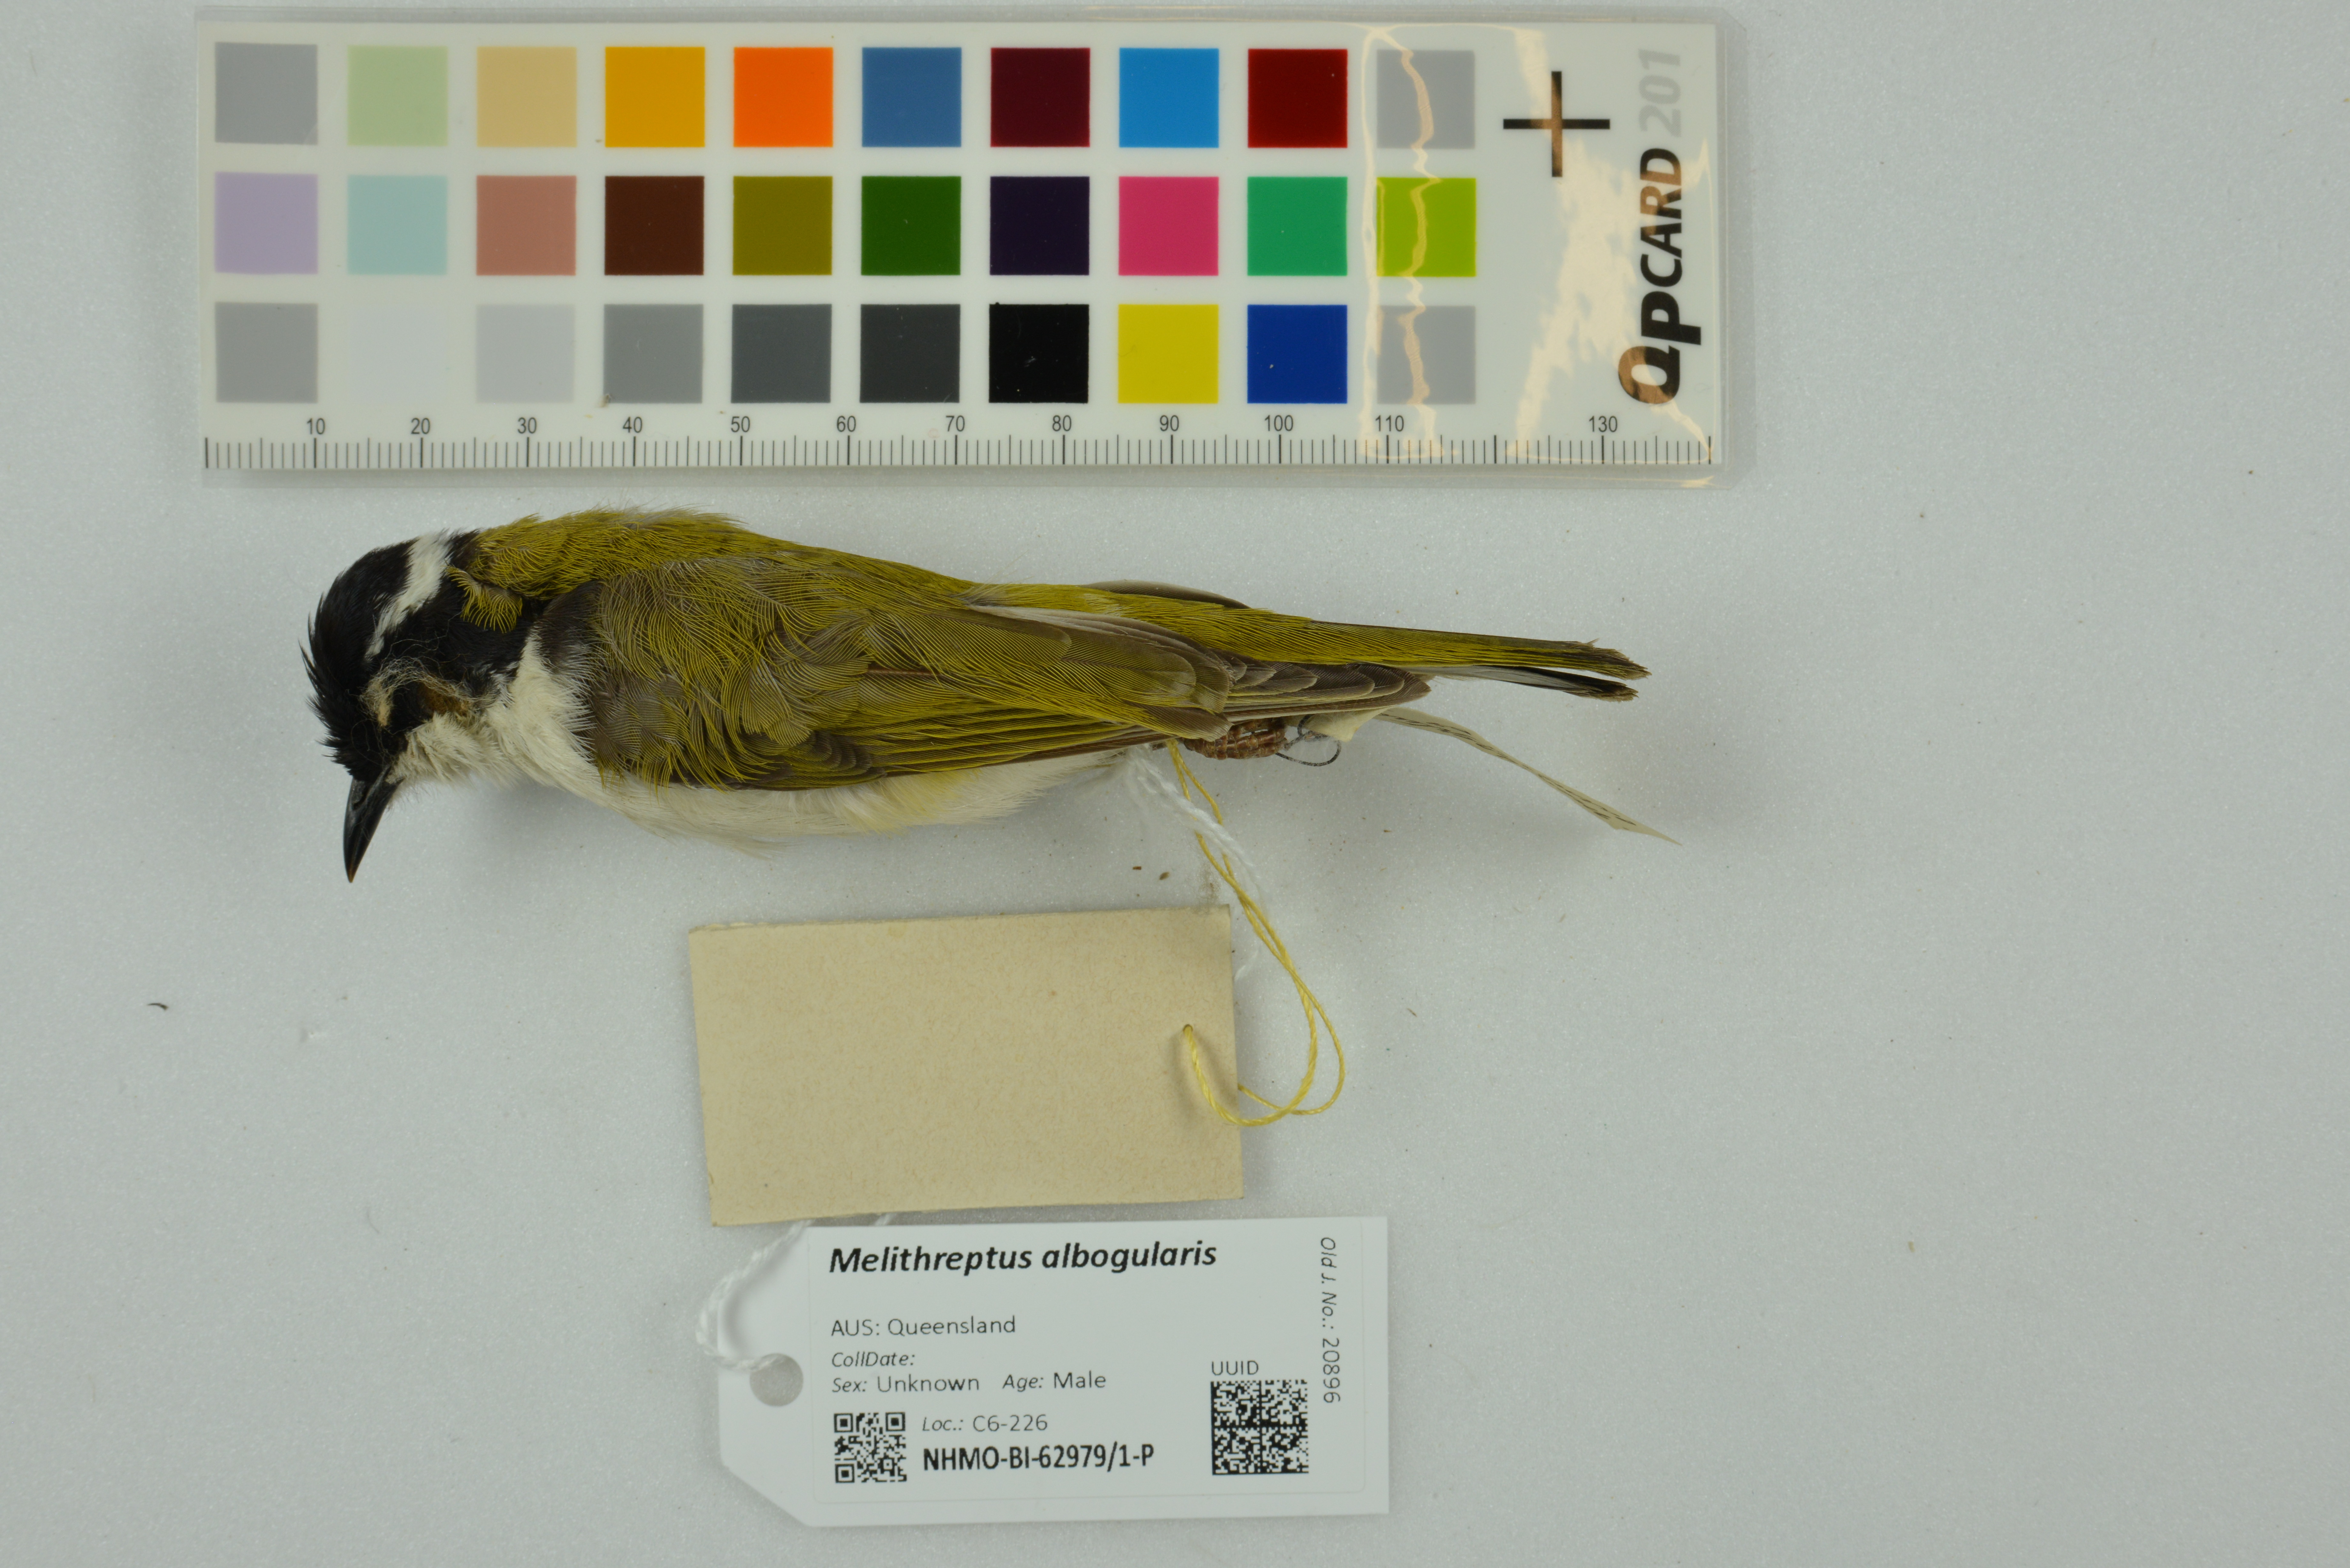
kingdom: Animalia
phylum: Chordata
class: Aves
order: Passeriformes
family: Meliphagidae
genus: Melithreptus
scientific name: Melithreptus albogularis
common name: White-throated honeyeater
